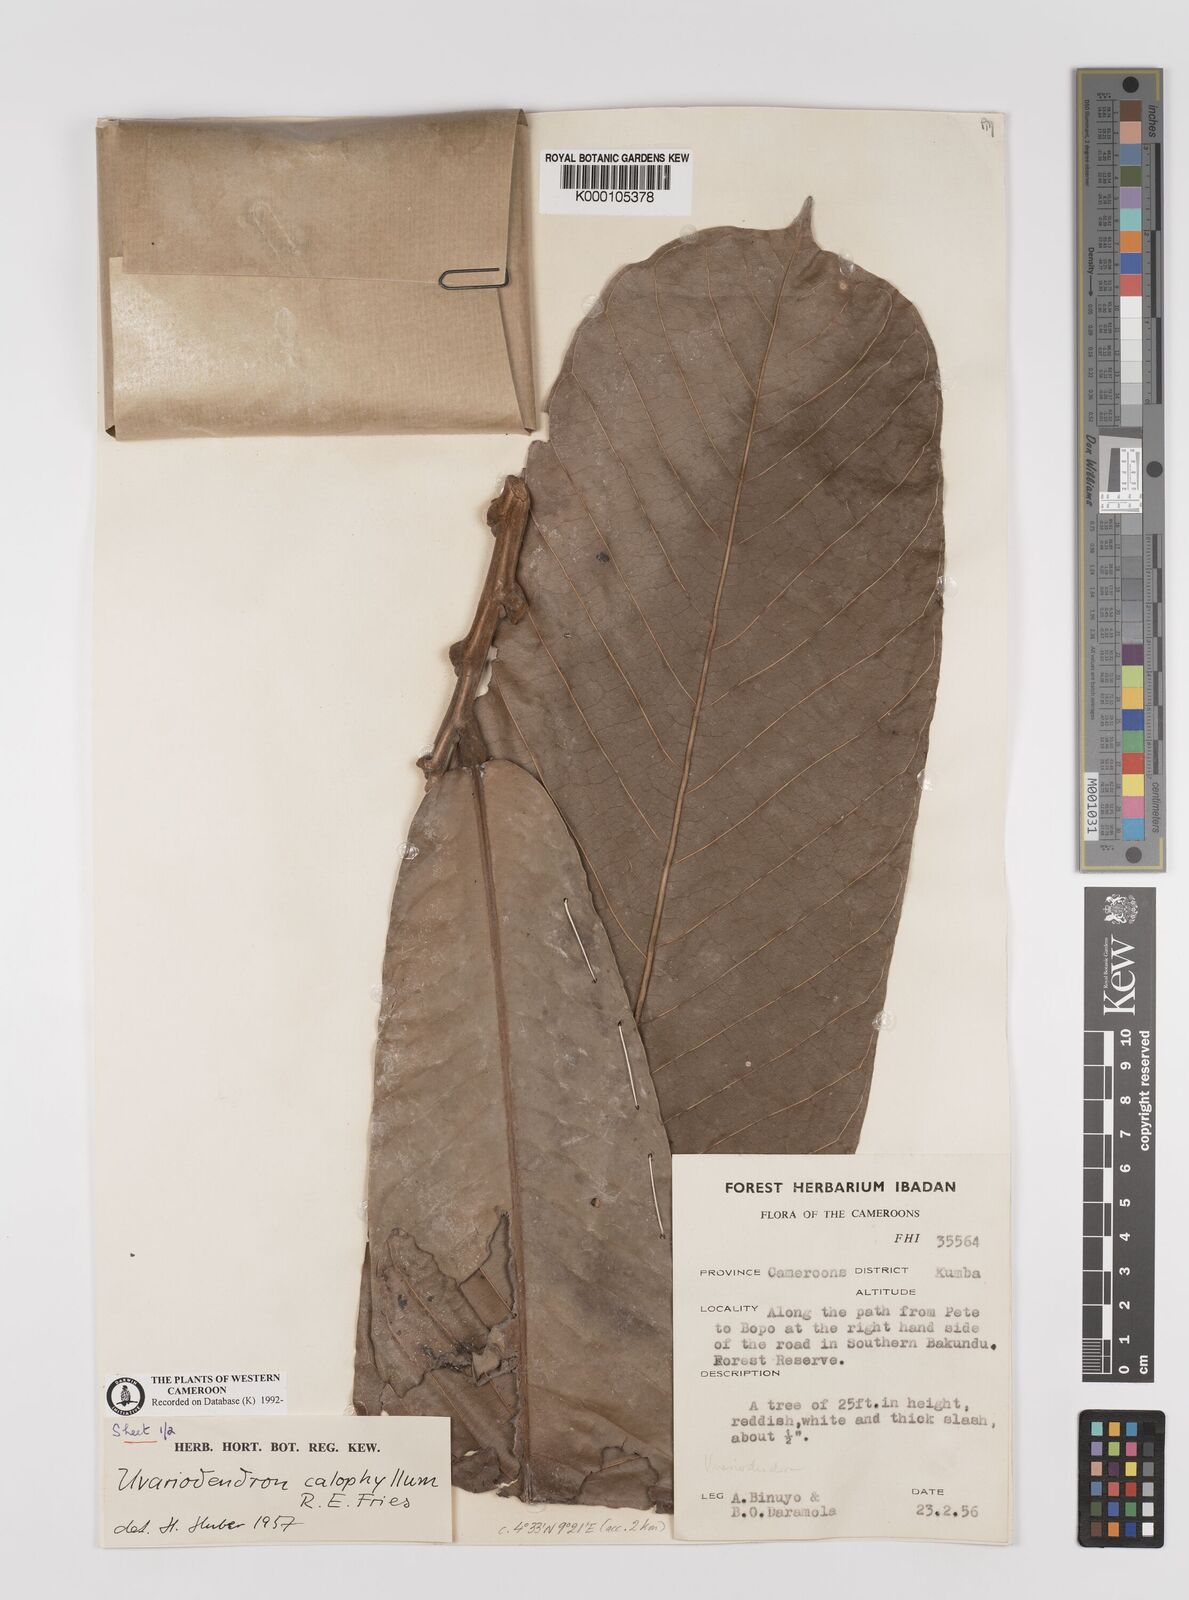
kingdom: Plantae
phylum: Tracheophyta
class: Magnoliopsida
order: Magnoliales
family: Annonaceae
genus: Uvariodendron
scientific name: Uvariodendron calophyllum
